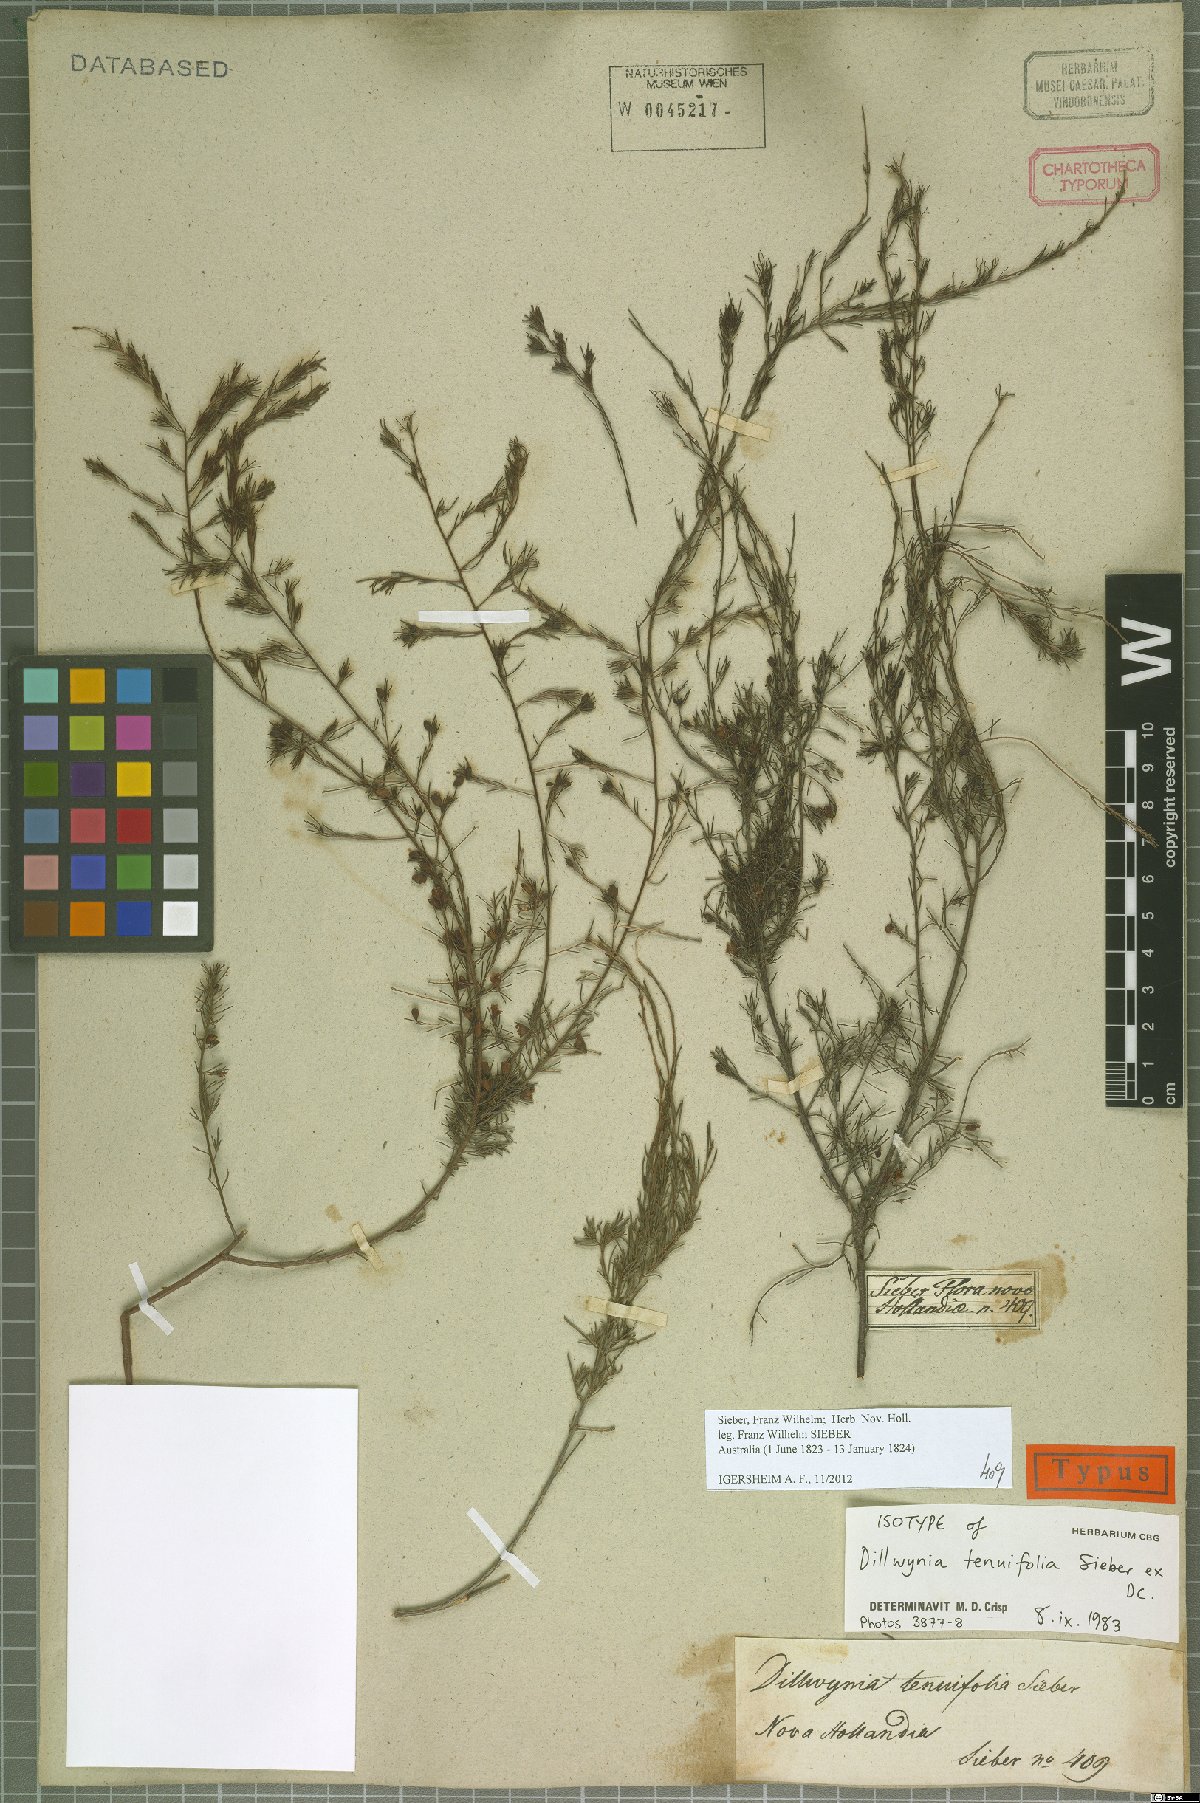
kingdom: Plantae
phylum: Tracheophyta
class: Magnoliopsida
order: Fabales
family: Fabaceae
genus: Dillwynia
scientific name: Dillwynia tenuifolia
